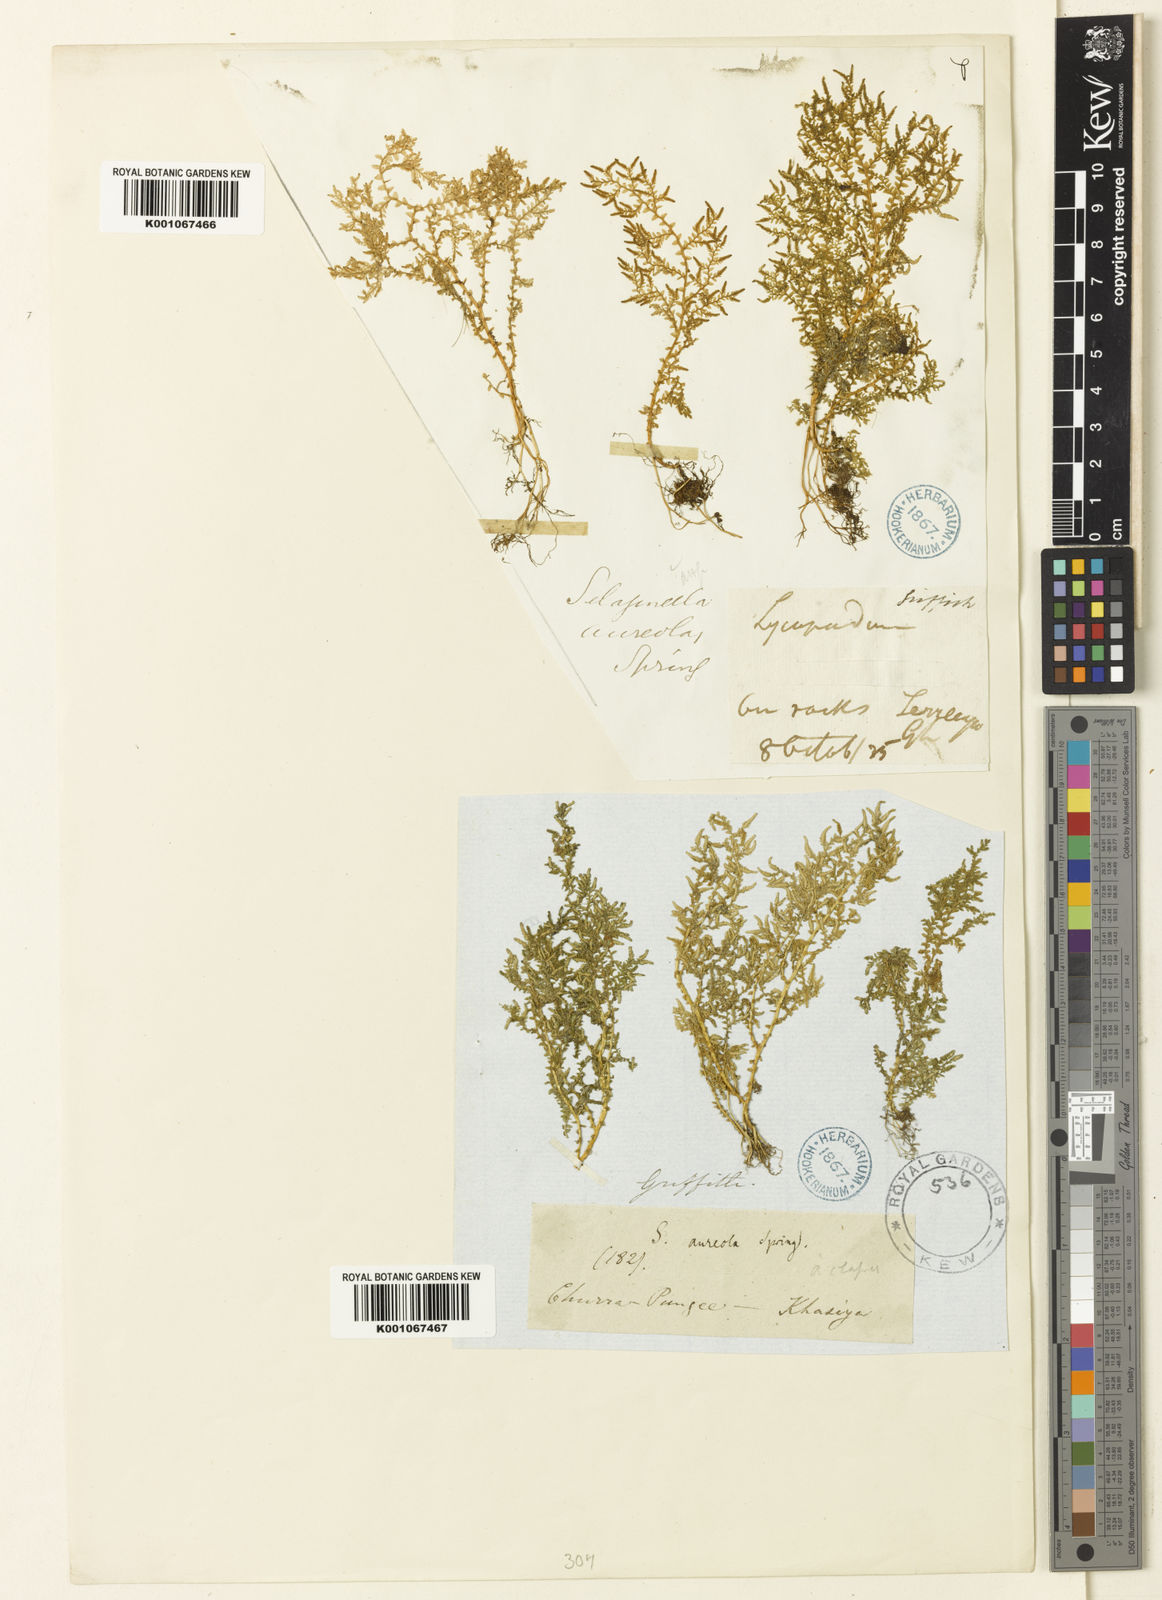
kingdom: Plantae
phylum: Tracheophyta
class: Lycopodiopsida
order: Selaginellales
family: Selaginellaceae
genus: Selaginella
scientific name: Selaginella
